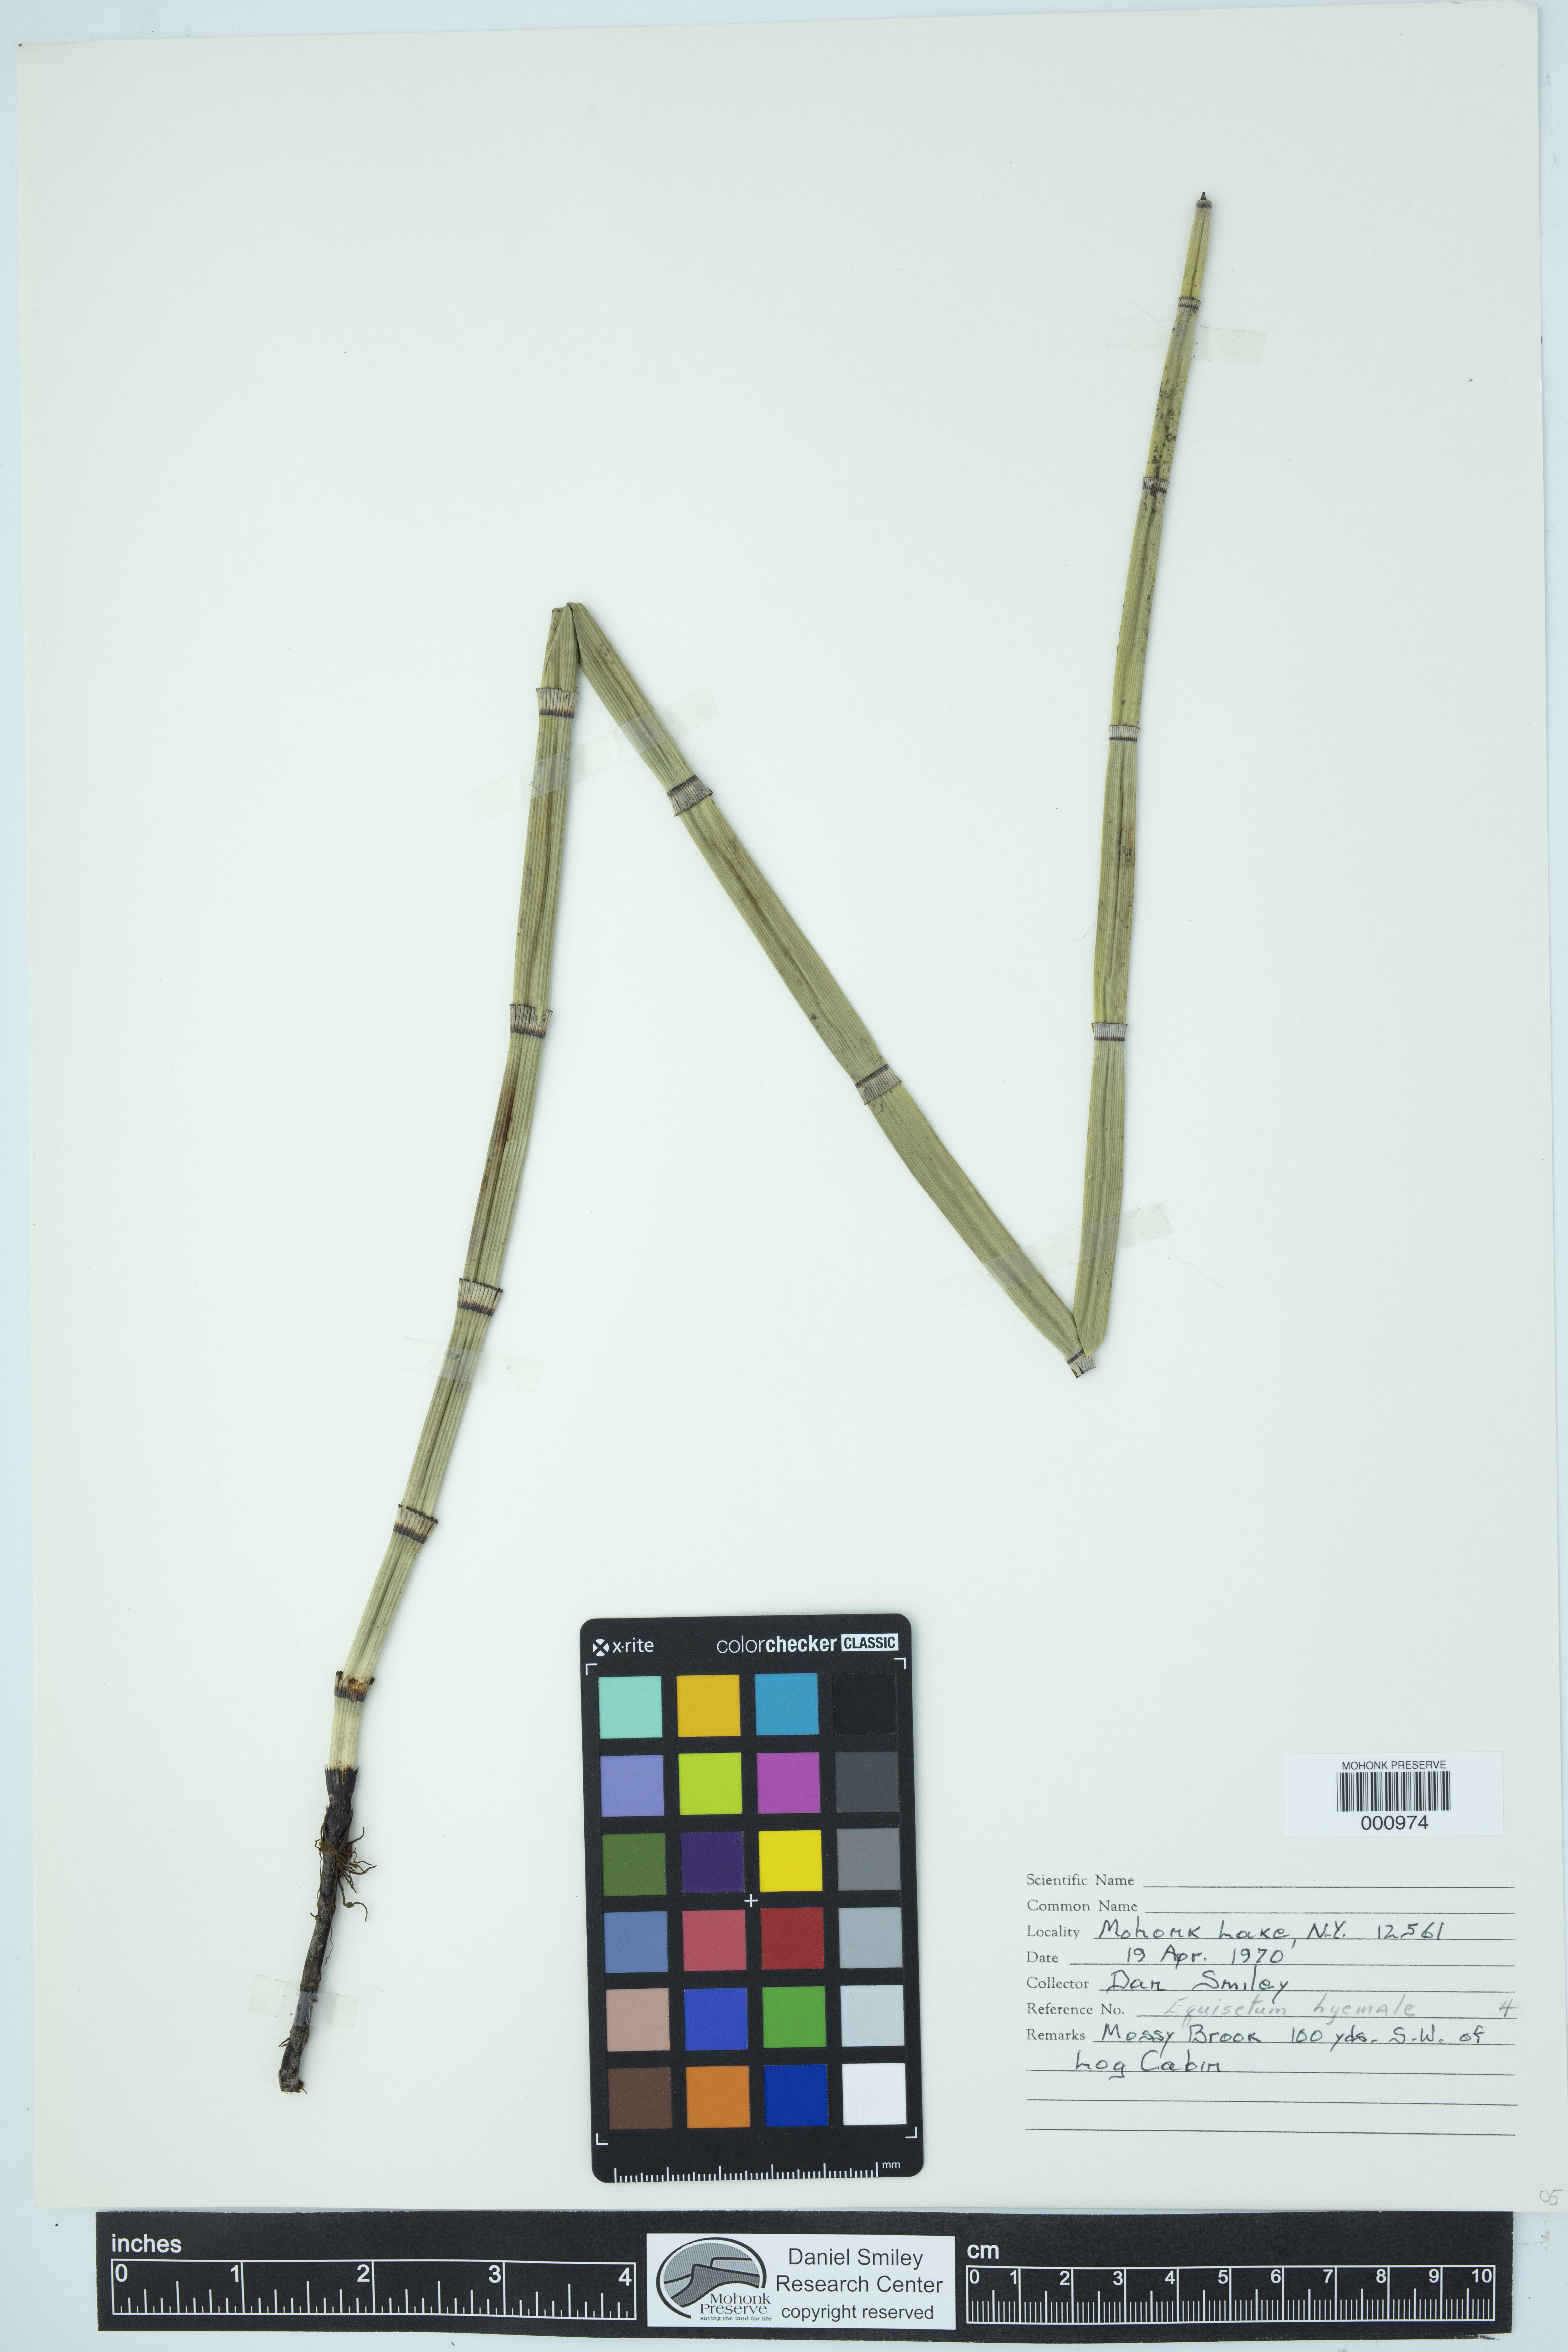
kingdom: Plantae
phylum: Tracheophyta
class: Polypodiopsida
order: Equisetales
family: Equisetaceae
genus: Equisetum
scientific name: Equisetum praealtum
